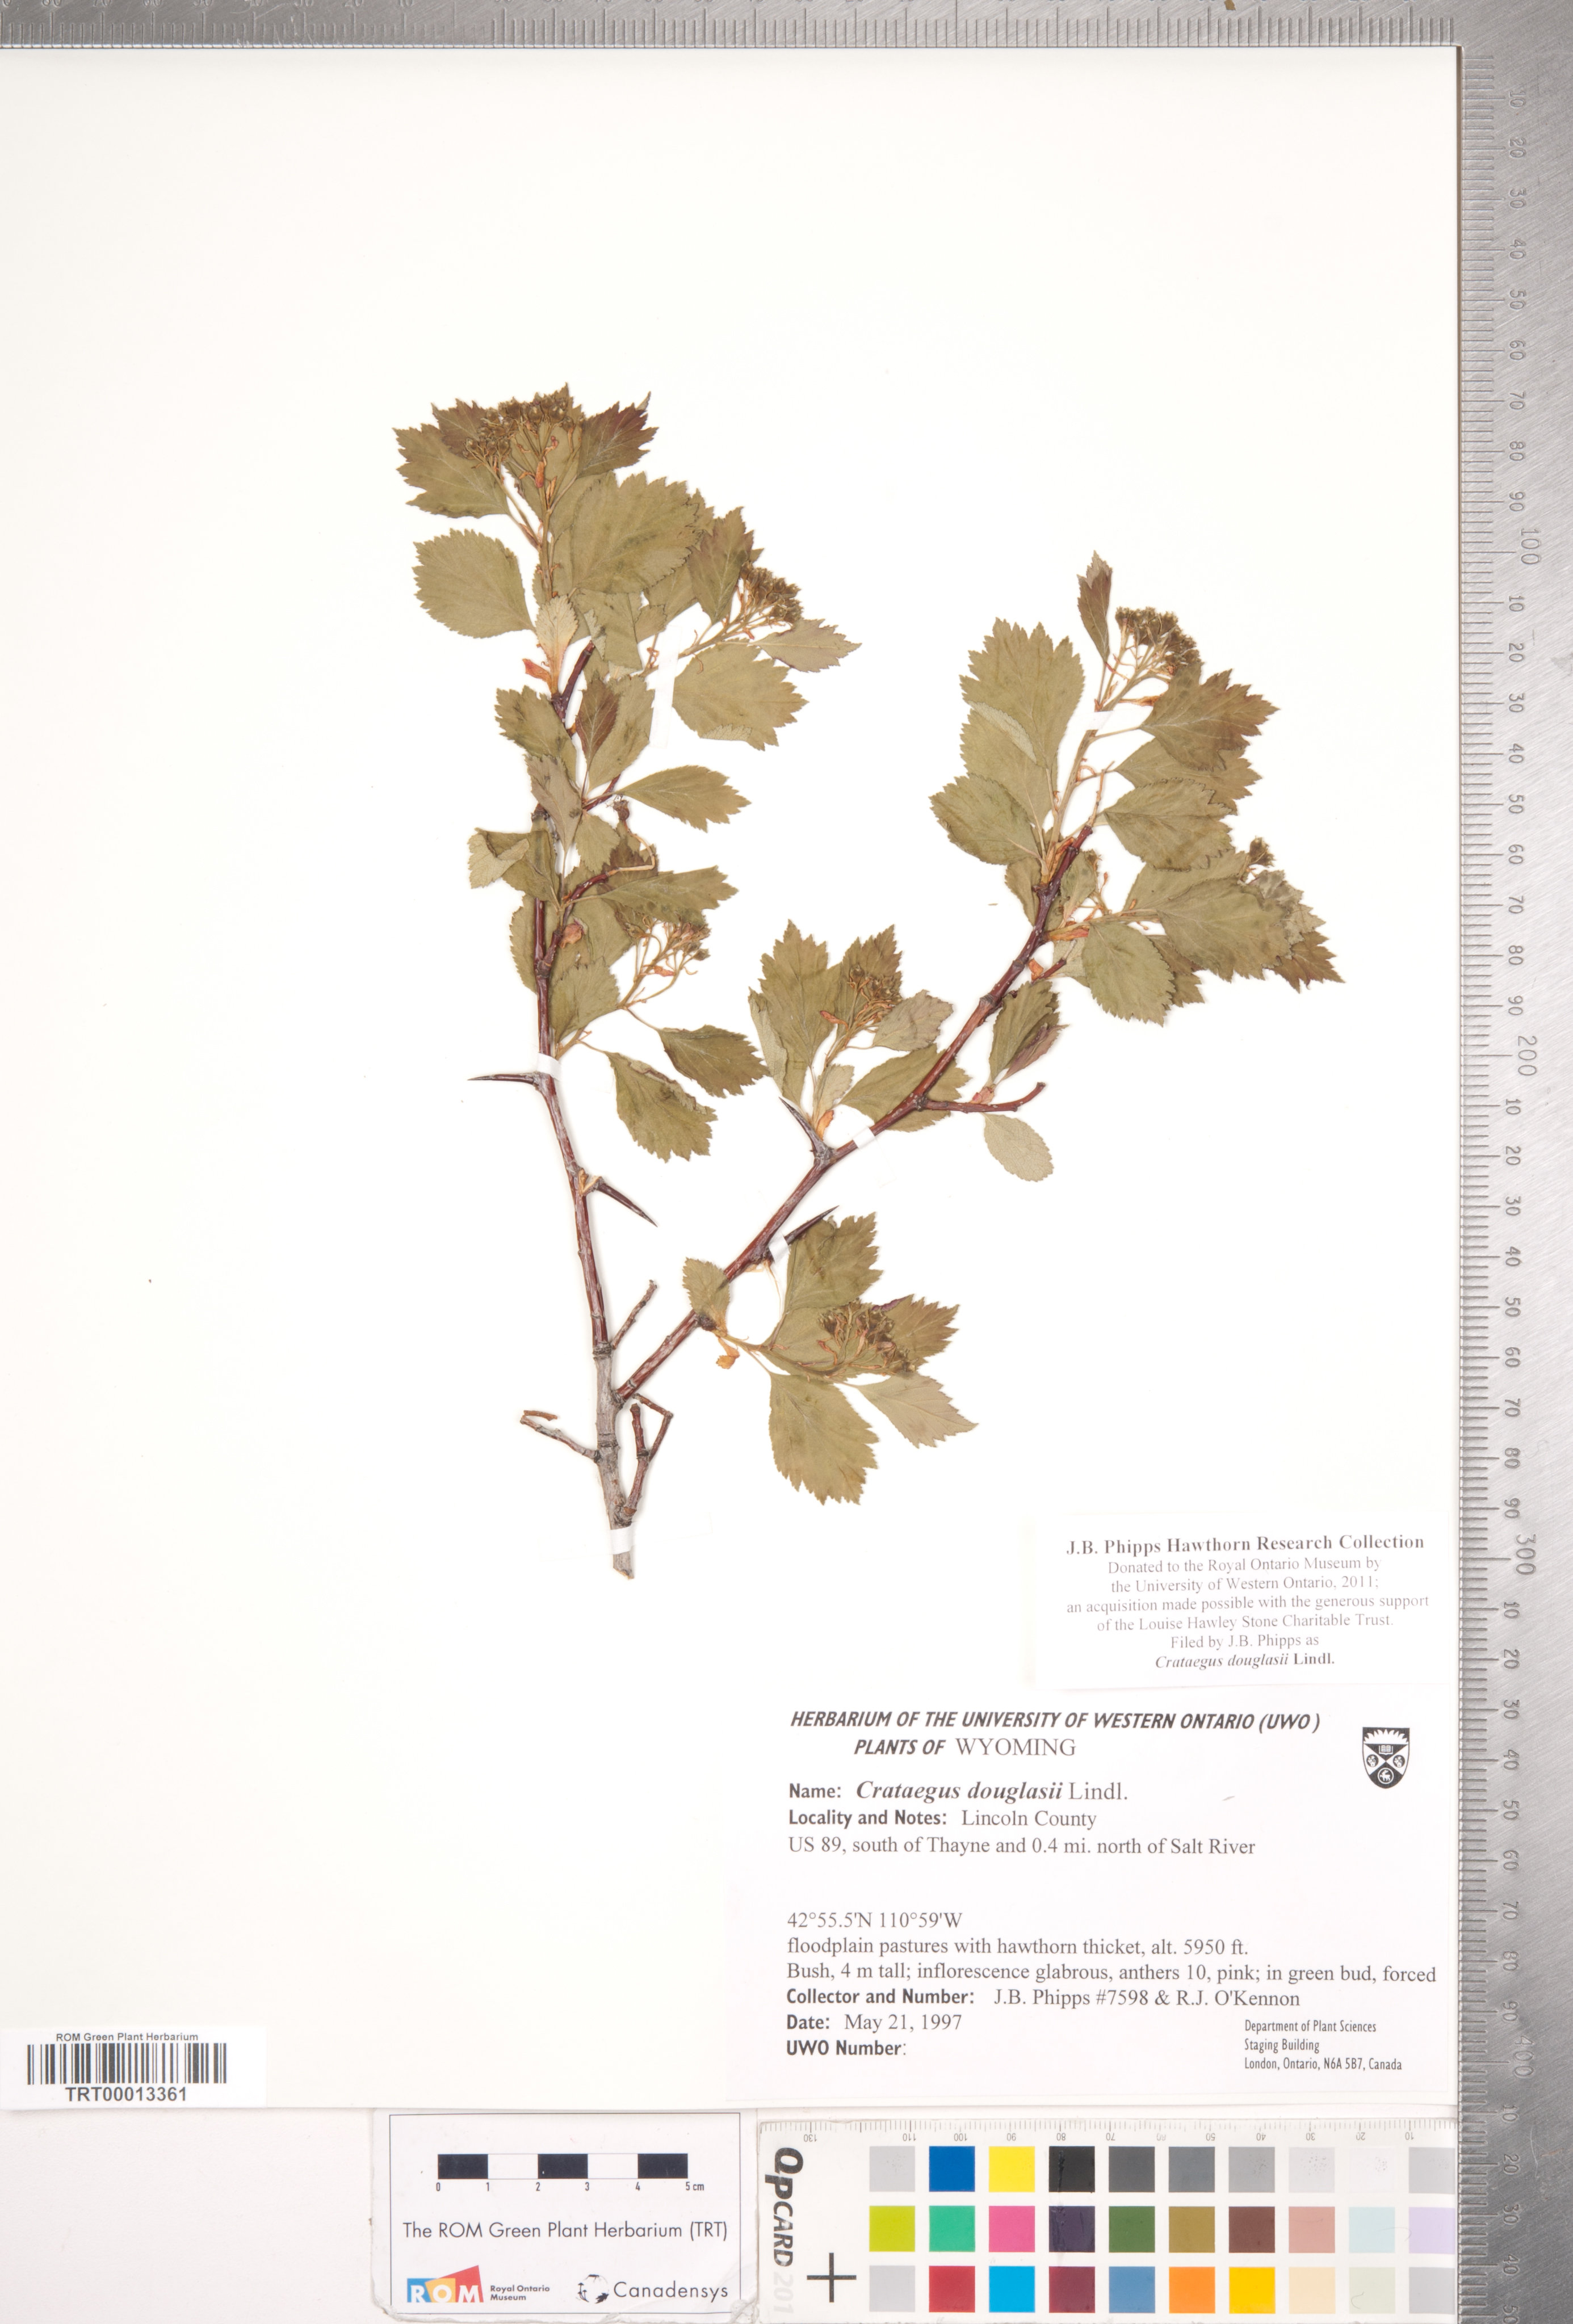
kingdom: Plantae
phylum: Tracheophyta
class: Magnoliopsida
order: Rosales
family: Rosaceae
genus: Crataegus
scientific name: Crataegus douglasii
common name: Black hawthorn
